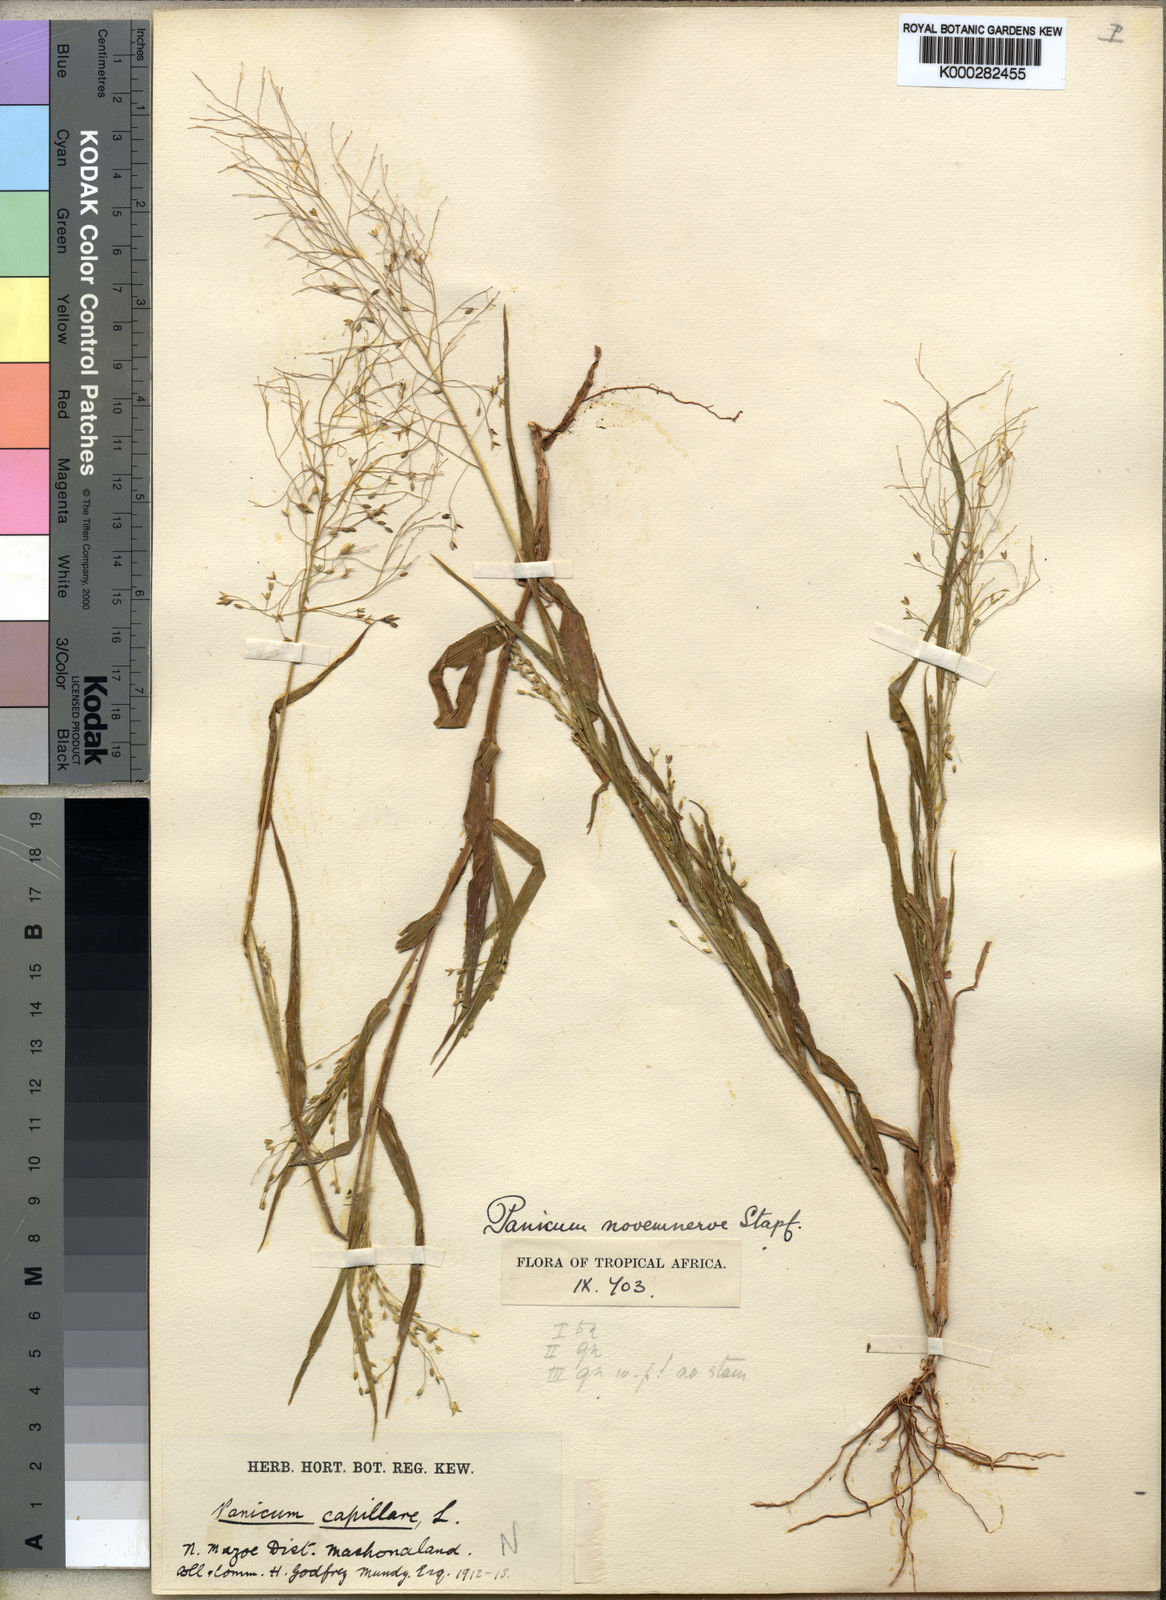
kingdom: Plantae
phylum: Tracheophyta
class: Liliopsida
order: Poales
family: Poaceae
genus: Panicum
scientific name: Panicum novemnerve
